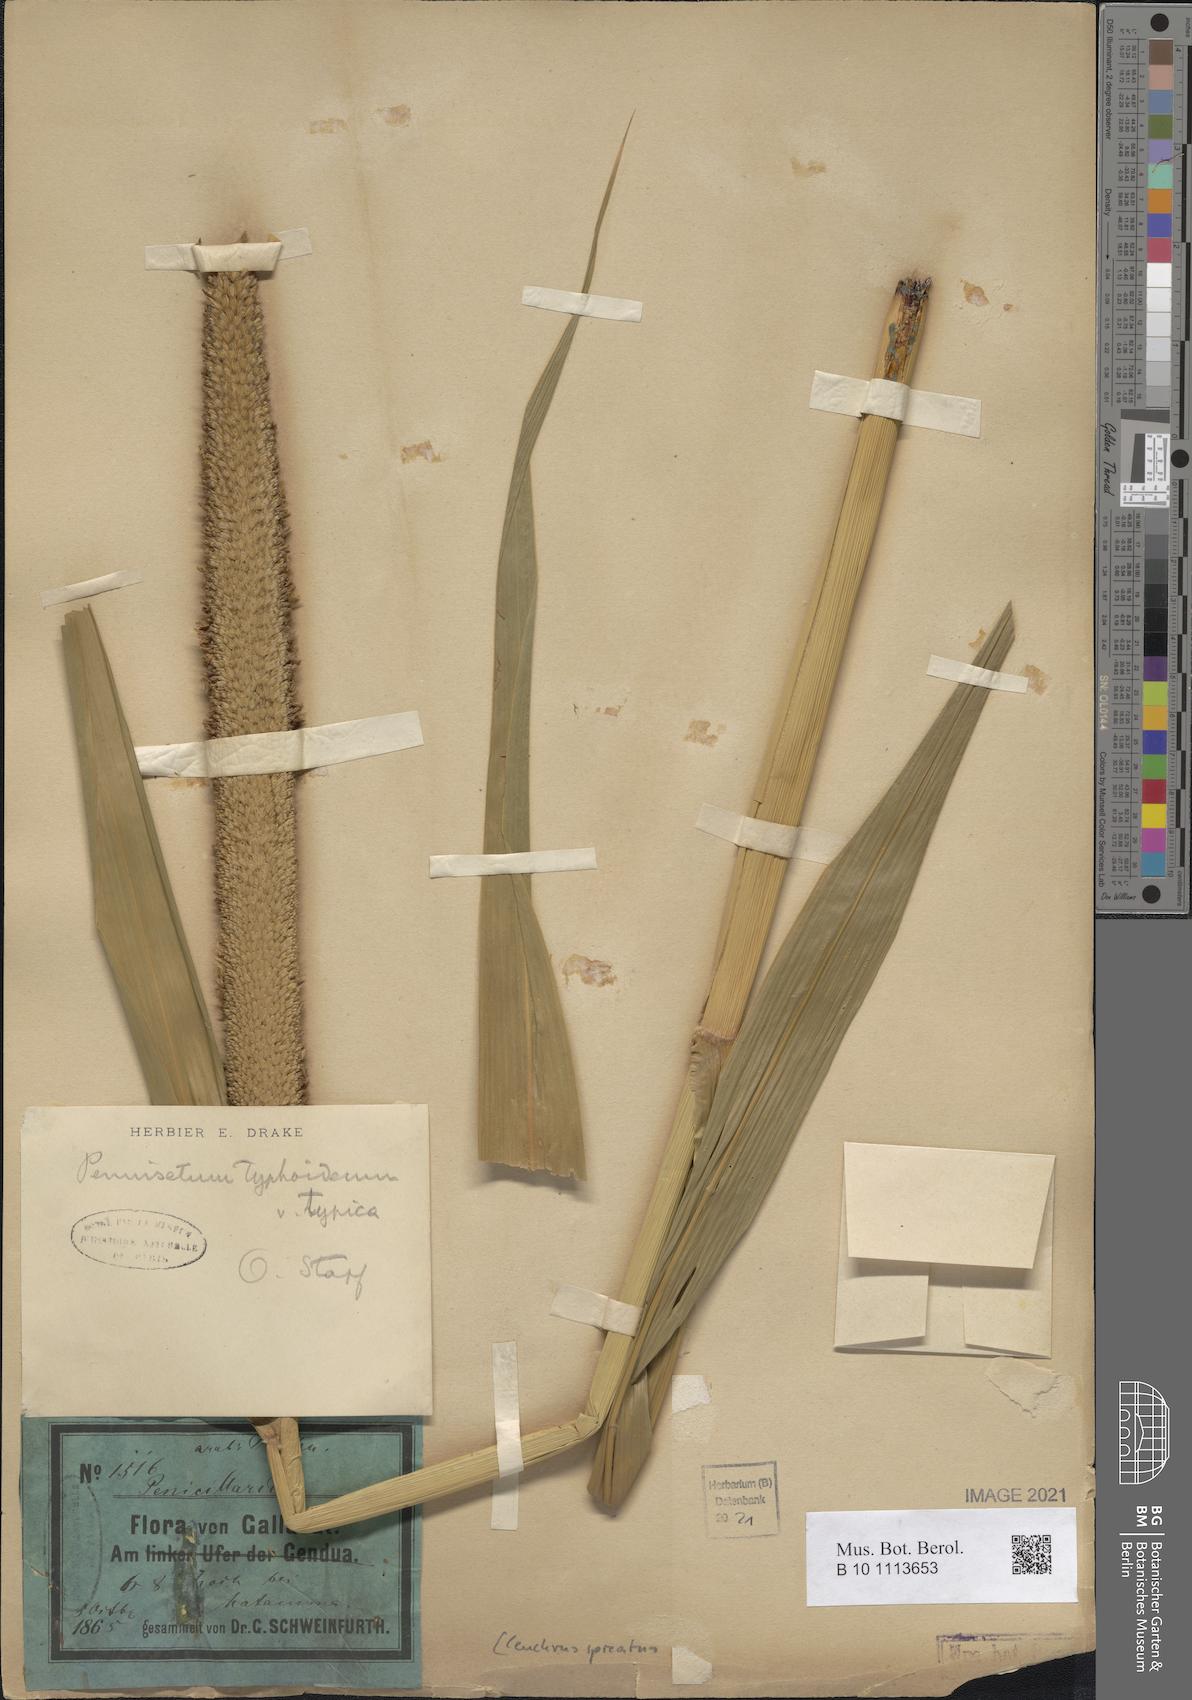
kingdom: Plantae
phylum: Tracheophyta
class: Liliopsida
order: Poales
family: Poaceae
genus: Cenchrus
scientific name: Cenchrus americanus
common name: Pearl millet
